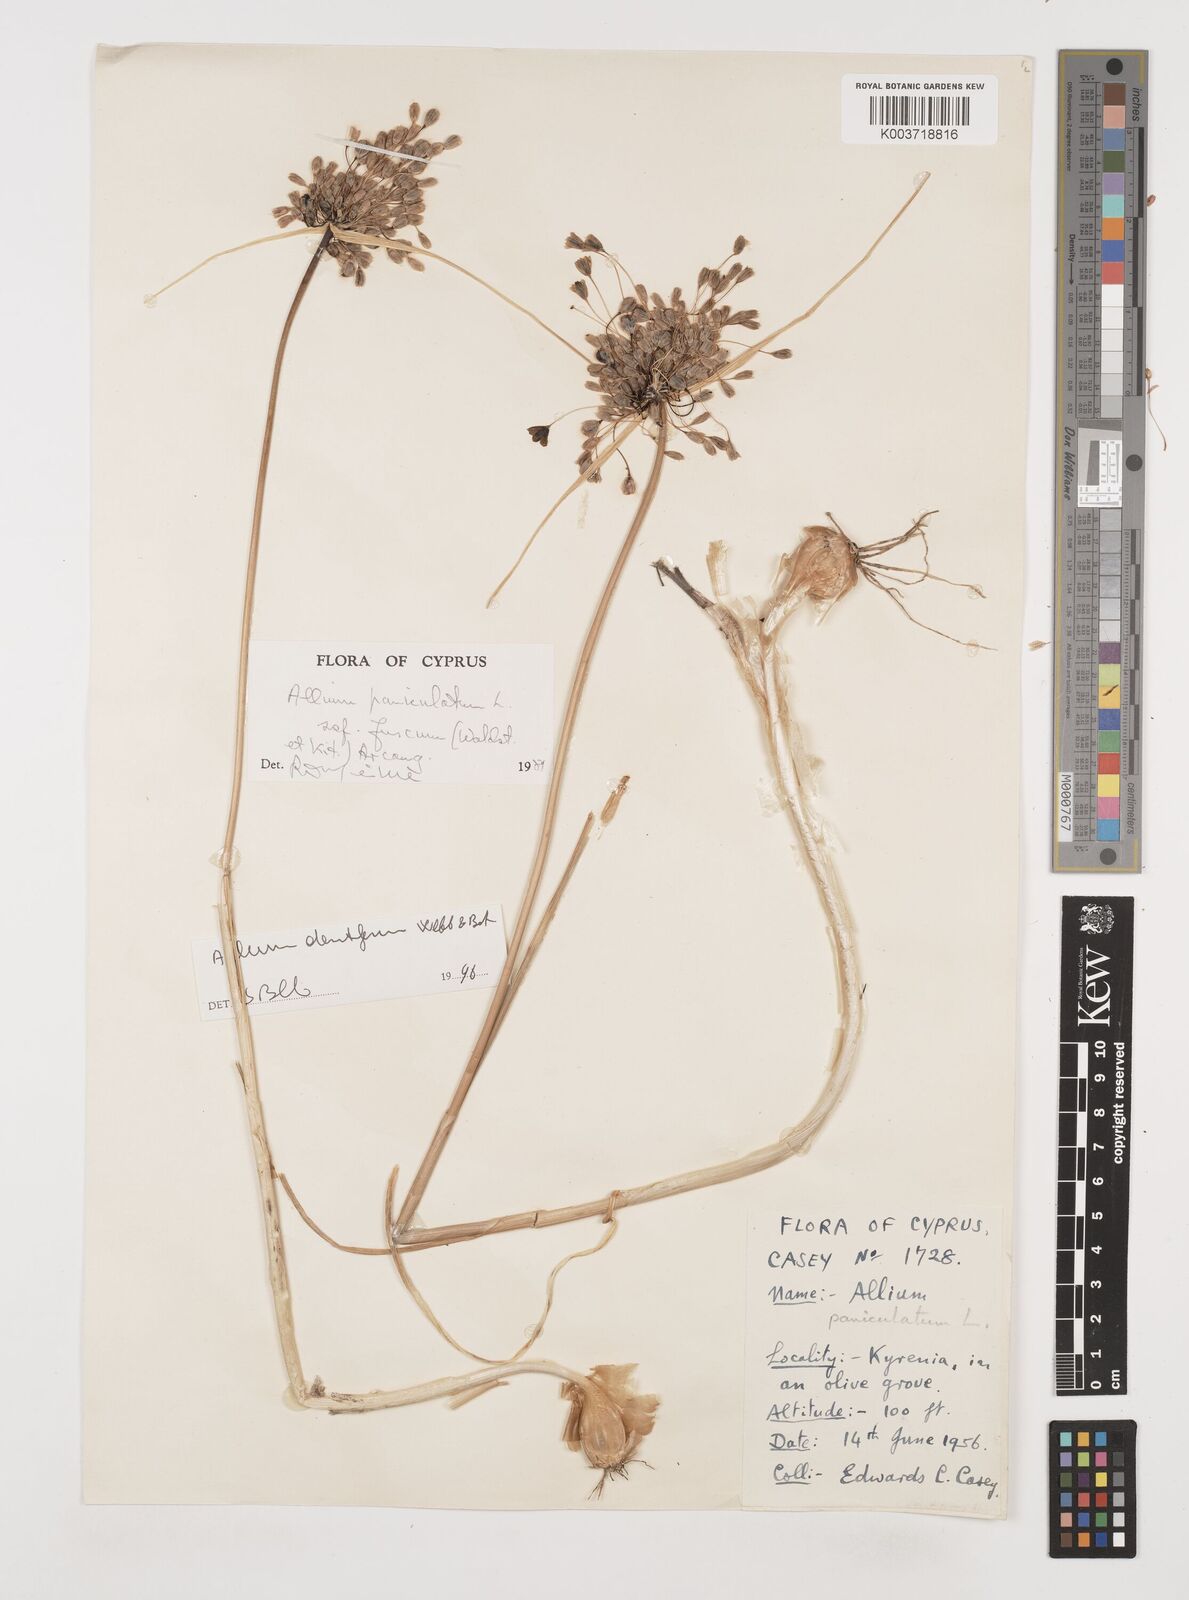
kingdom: Plantae
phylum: Tracheophyta
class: Liliopsida
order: Asparagales
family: Amaryllidaceae
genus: Allium
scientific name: Allium paniculatum
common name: Pale garlic
